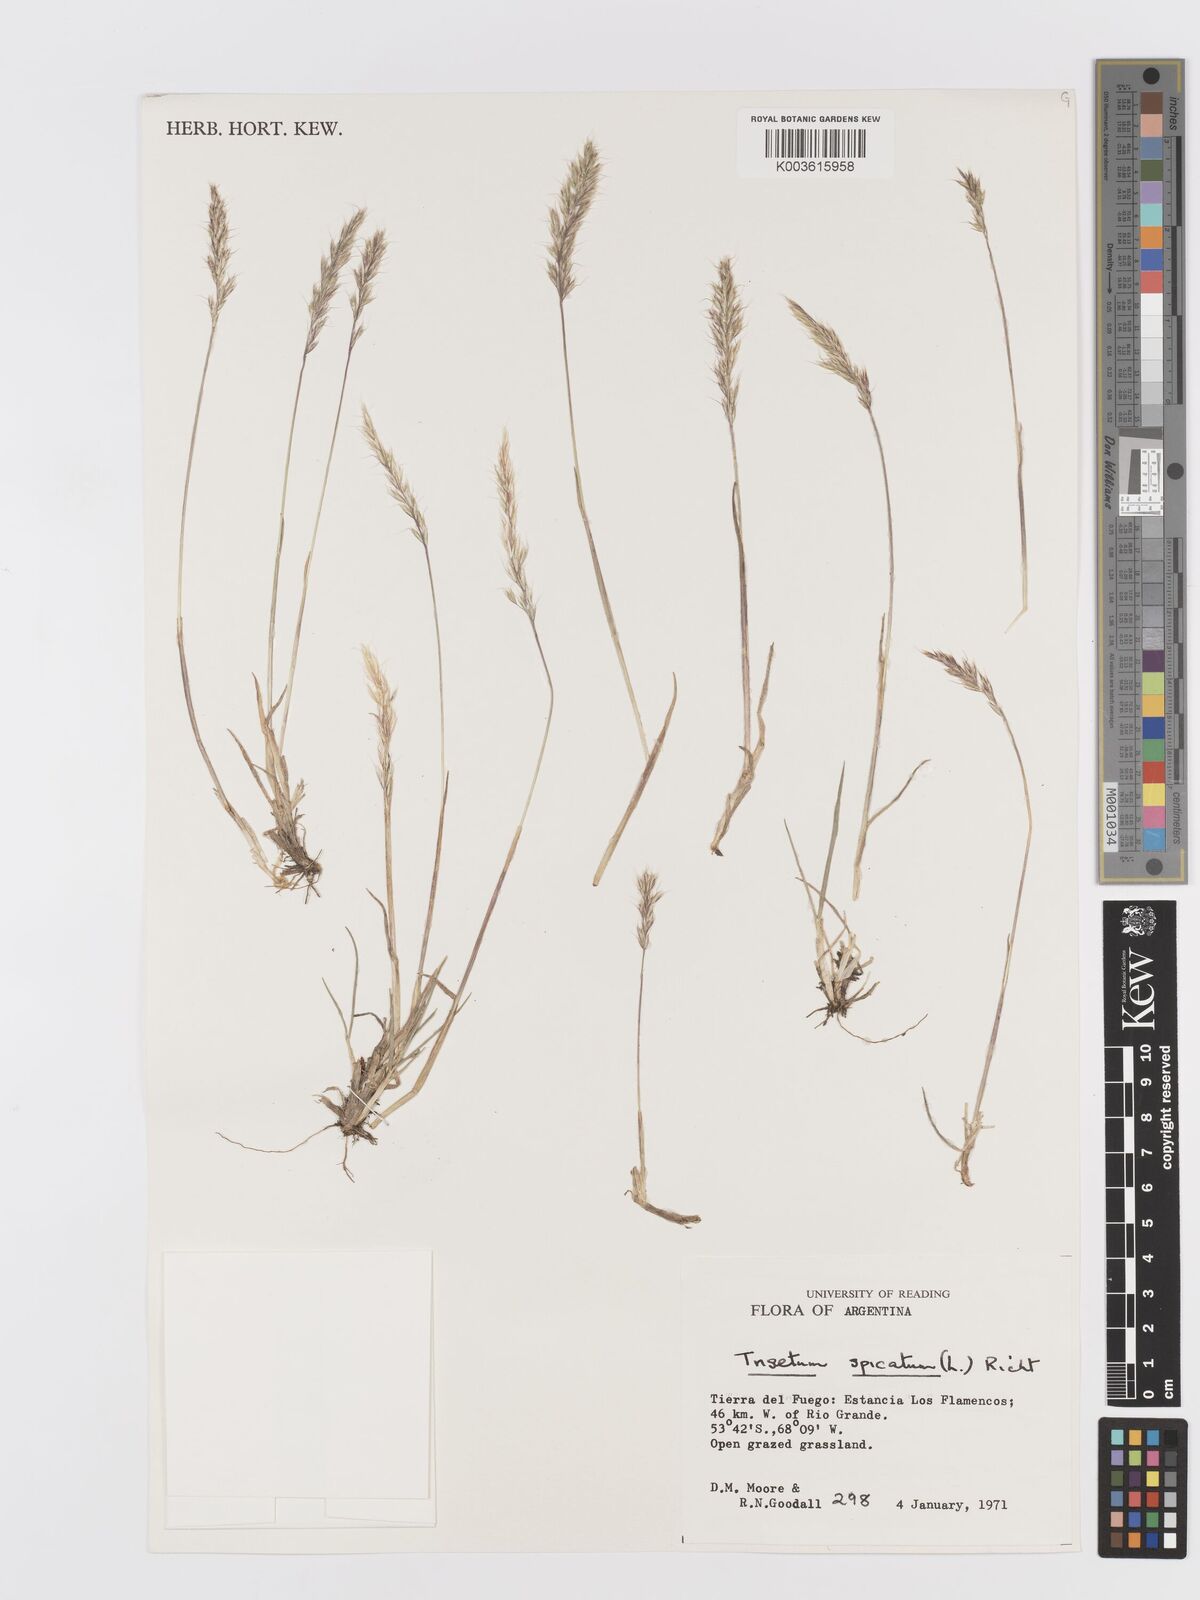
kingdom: Plantae
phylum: Tracheophyta
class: Liliopsida
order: Poales
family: Poaceae
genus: Koeleria
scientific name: Koeleria spicata
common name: Mountain trisetum
